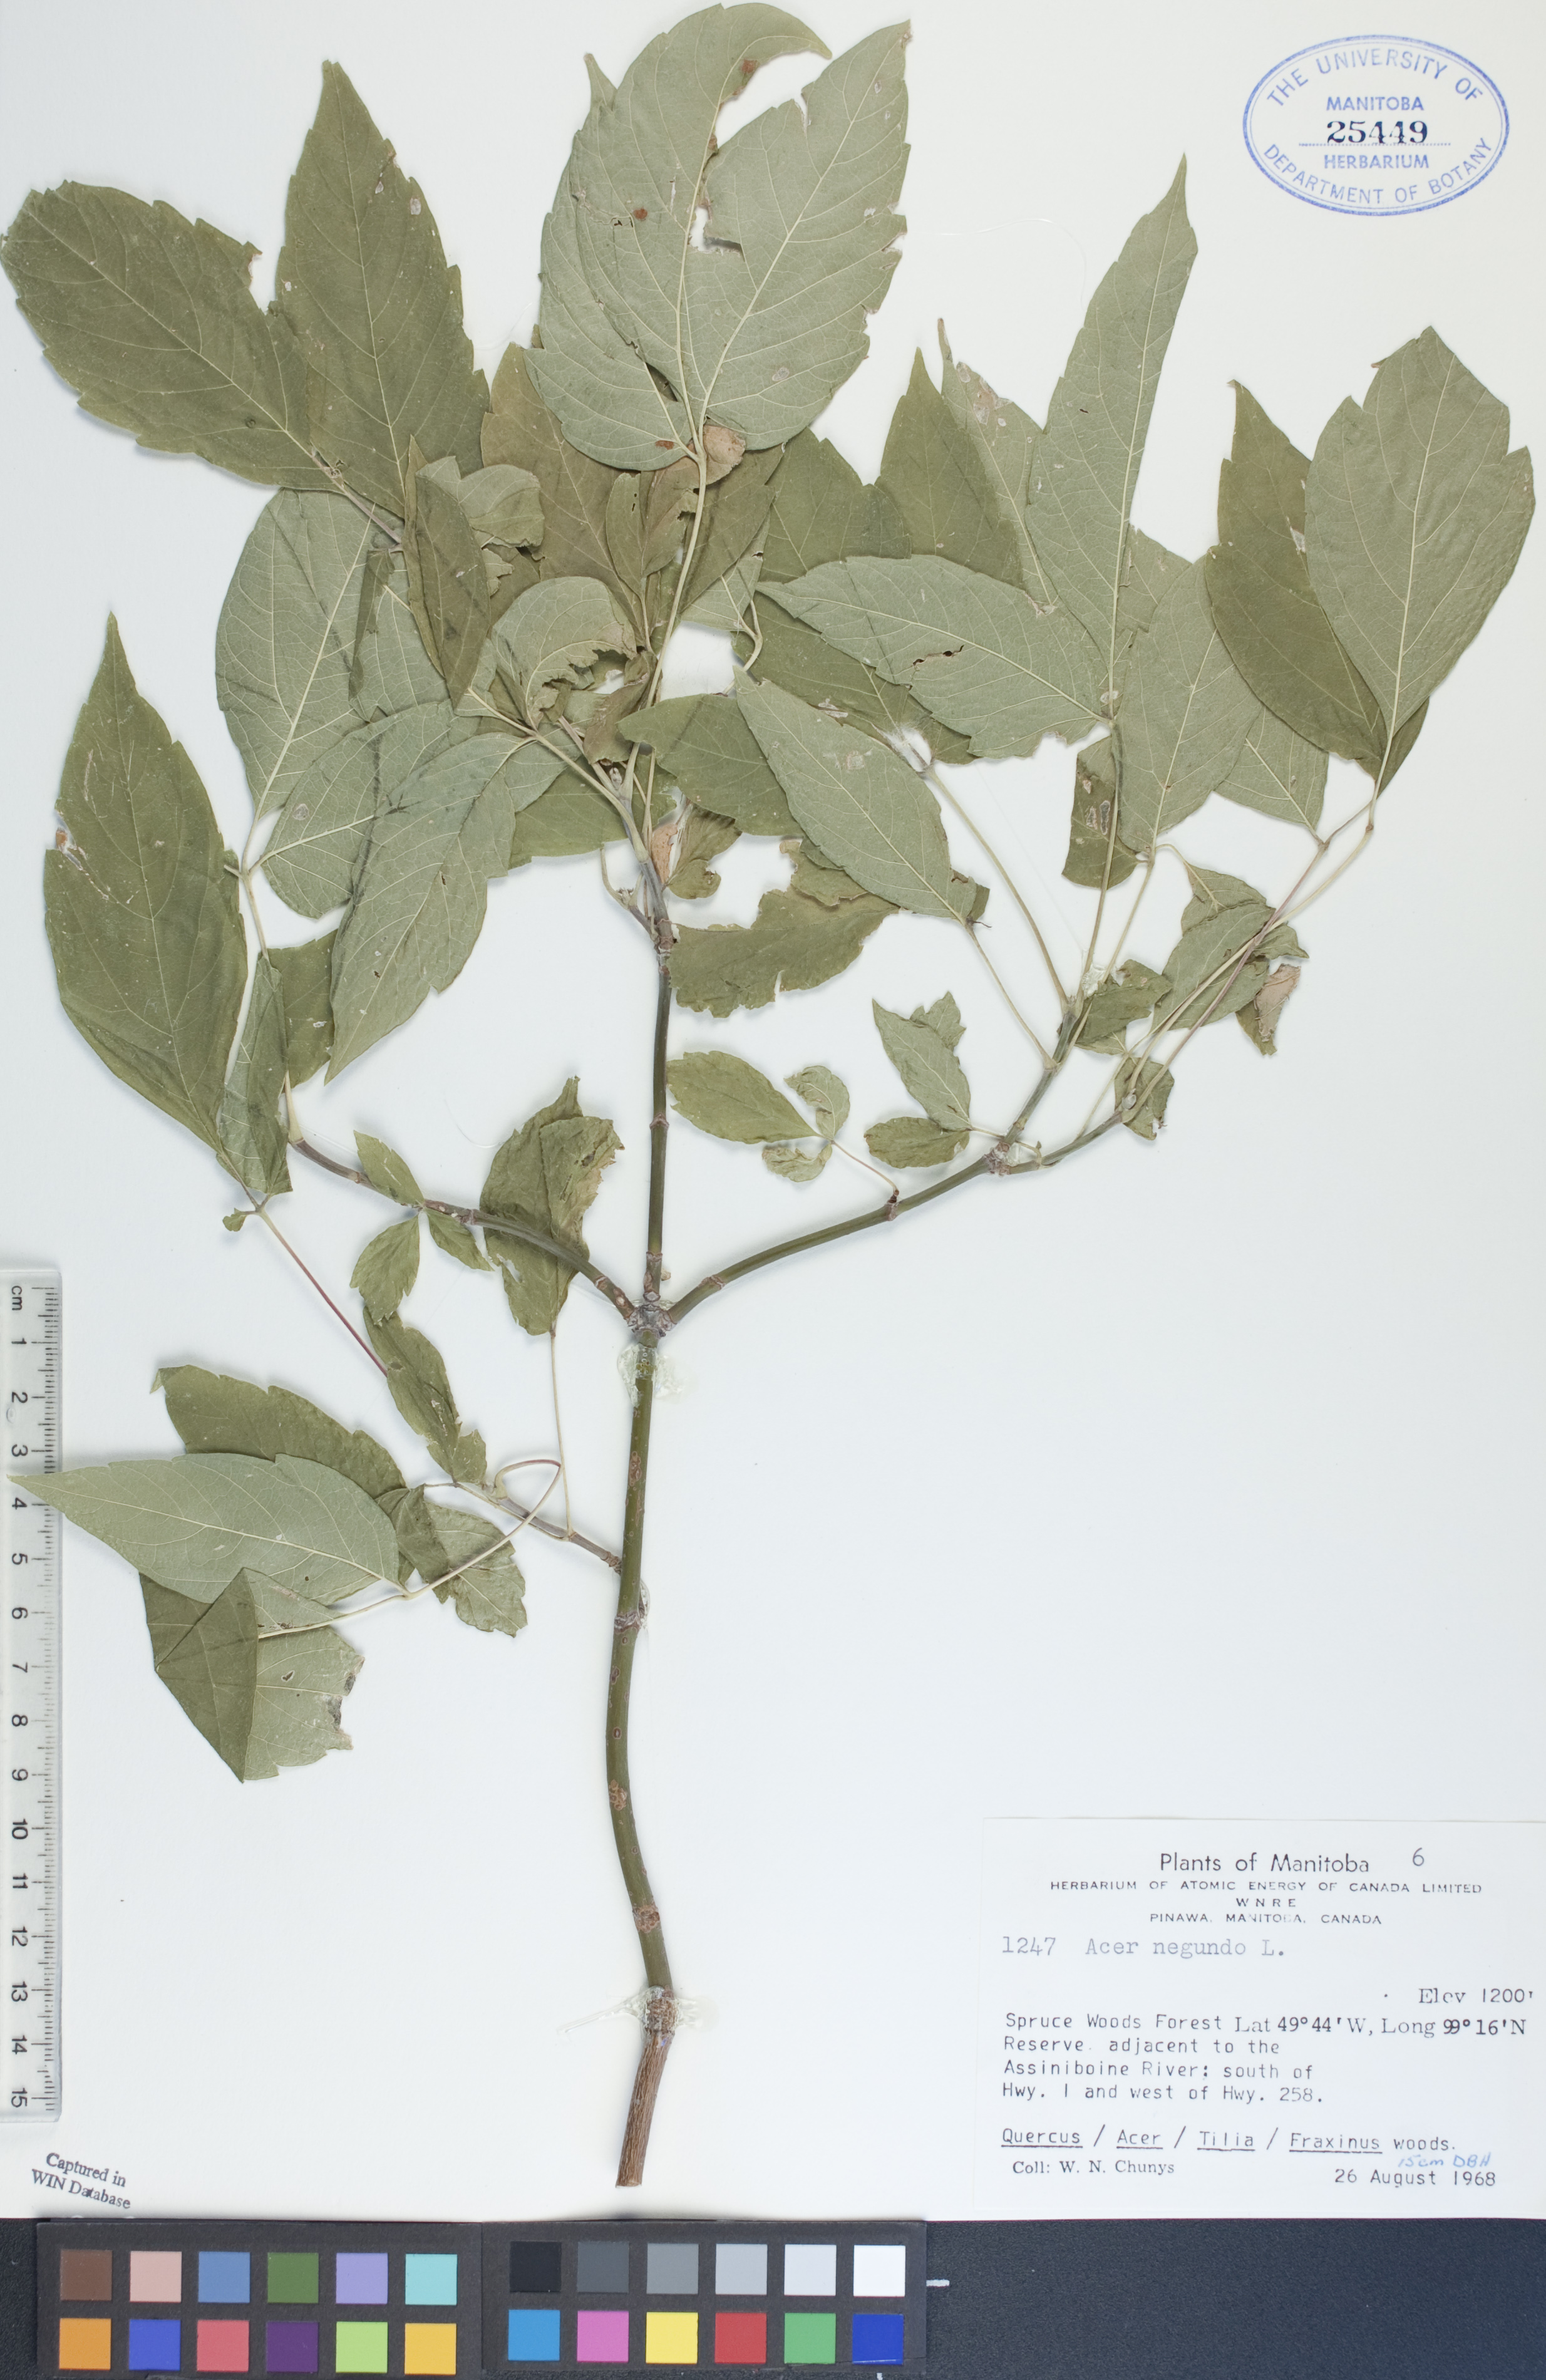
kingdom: Plantae
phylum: Tracheophyta
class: Magnoliopsida
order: Sapindales
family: Sapindaceae
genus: Acer
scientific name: Acer negundo
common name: Ashleaf maple
